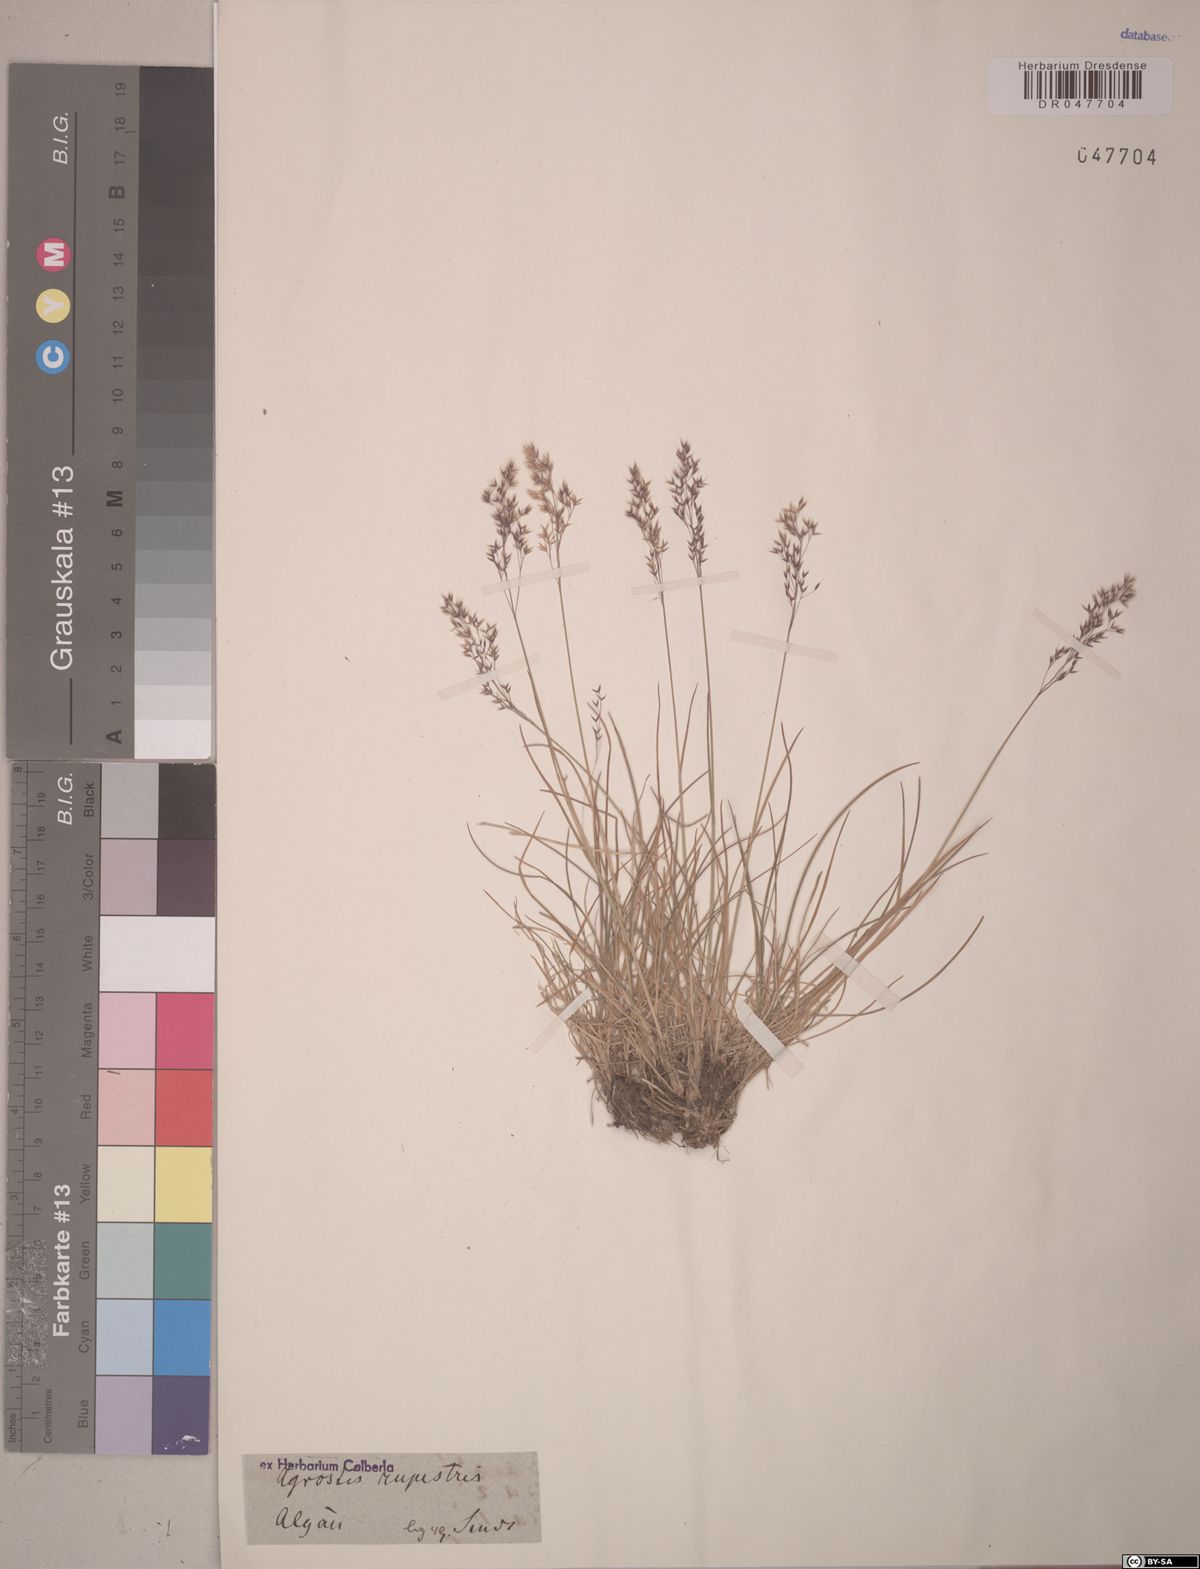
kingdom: Plantae
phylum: Tracheophyta
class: Liliopsida
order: Poales
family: Poaceae
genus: Agrostis
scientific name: Agrostis rupestris
